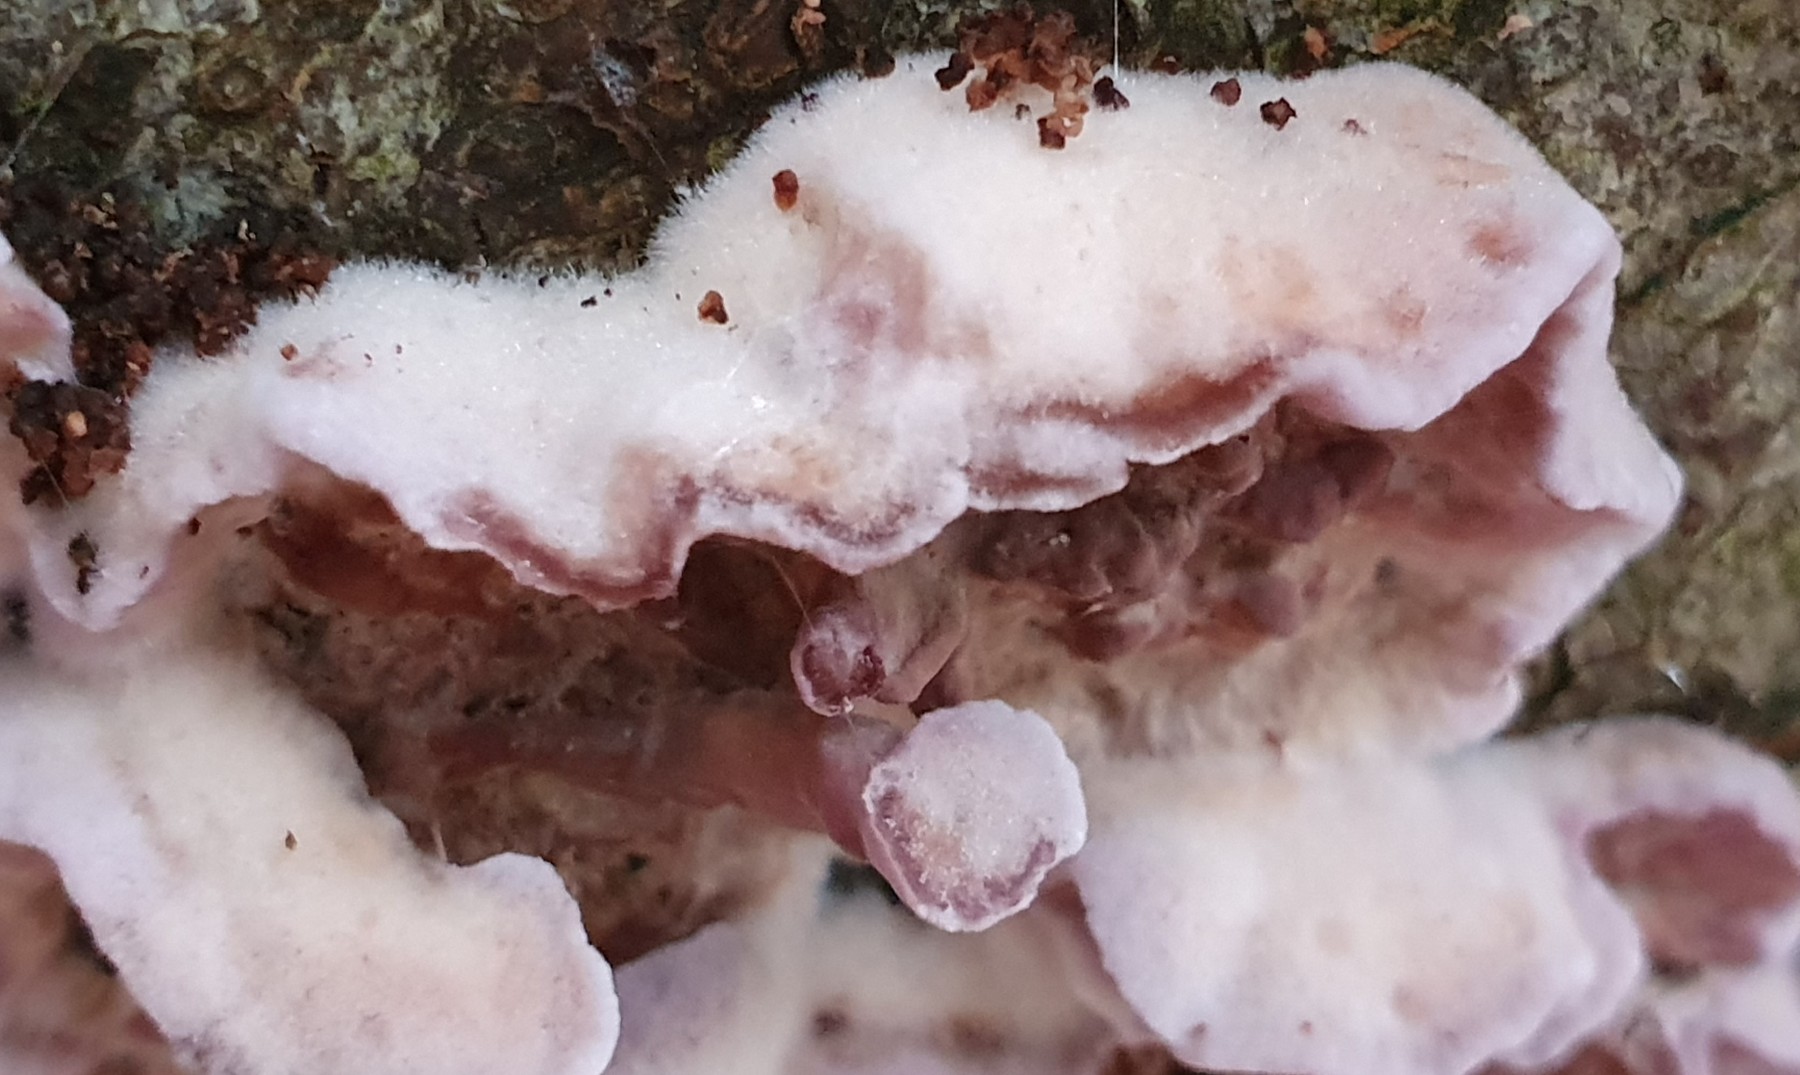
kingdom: Fungi
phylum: Basidiomycota
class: Agaricomycetes
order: Agaricales
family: Cyphellaceae
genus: Chondrostereum
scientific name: Chondrostereum purpureum
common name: purpurlædersvamp
